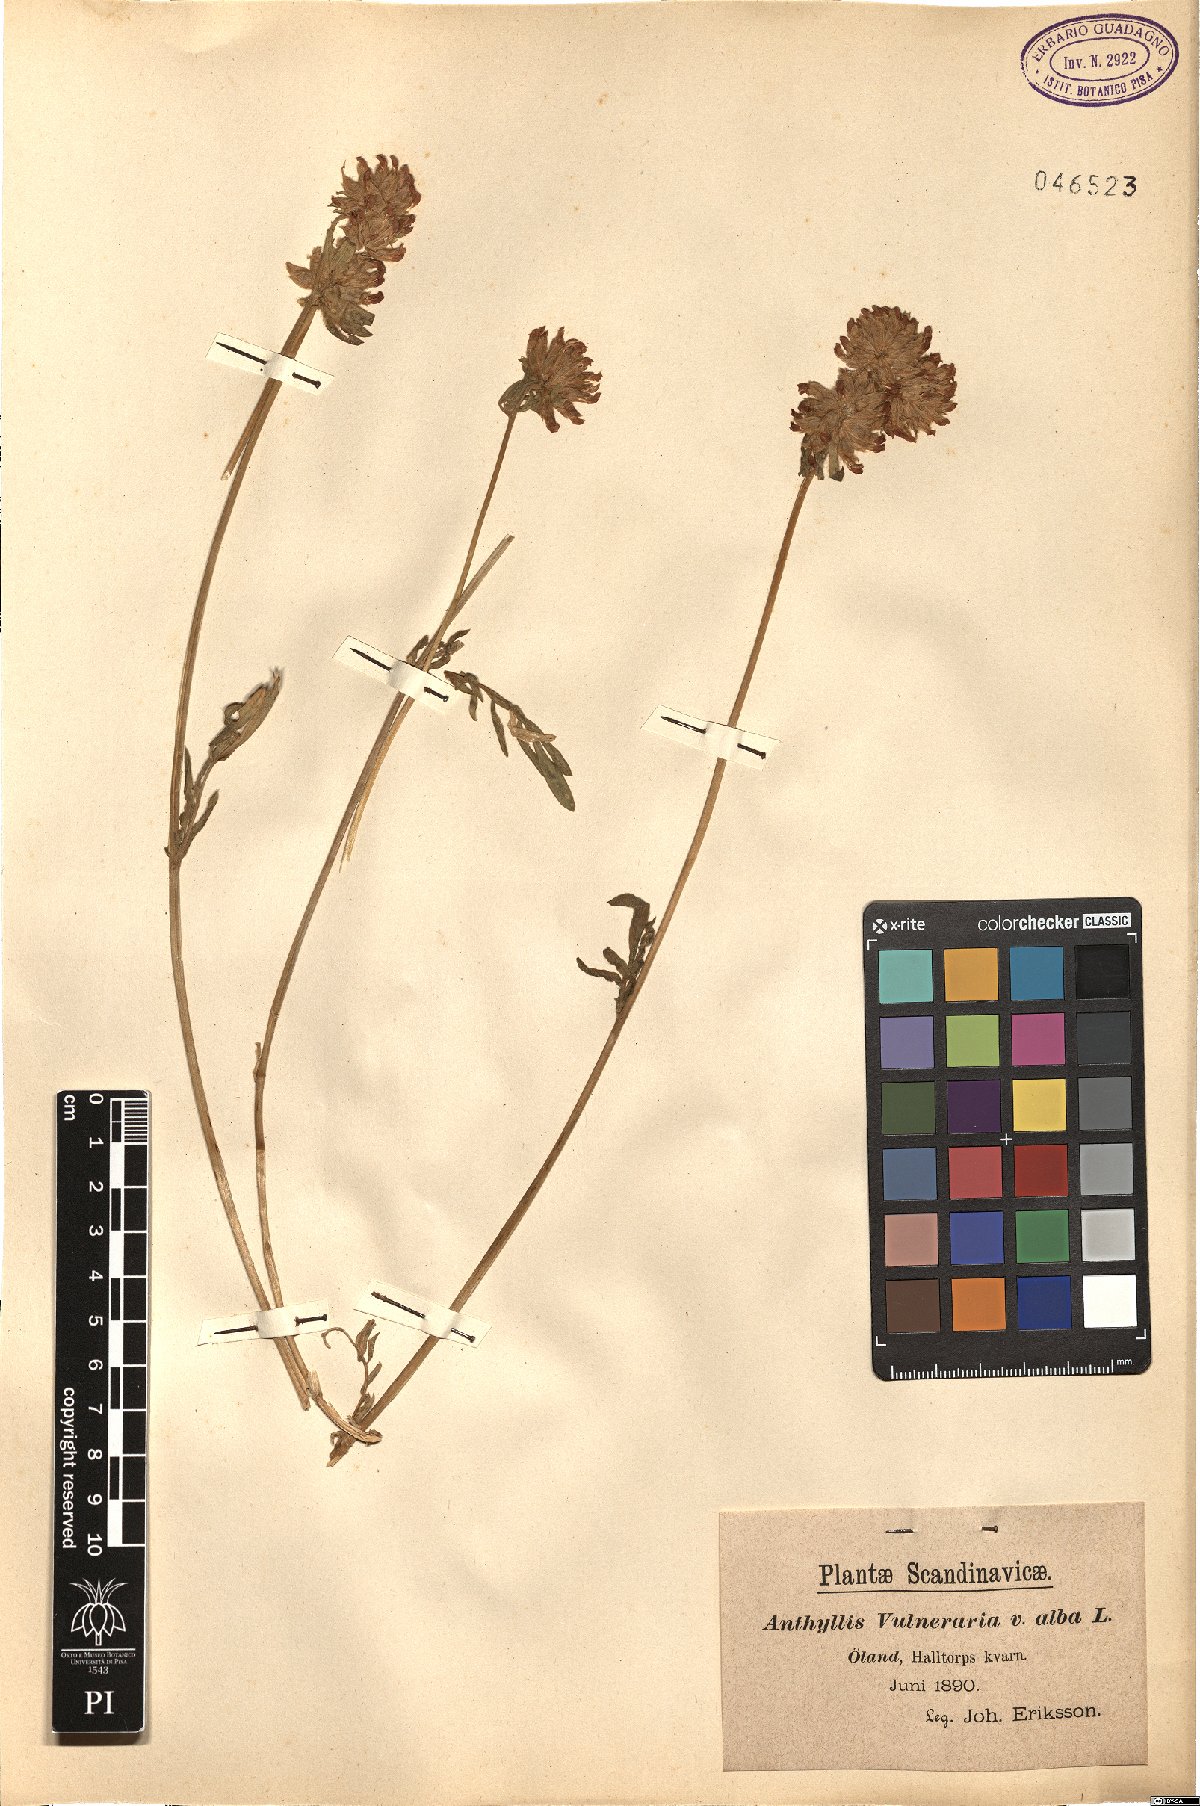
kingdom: Plantae
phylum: Tracheophyta
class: Magnoliopsida
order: Fabales
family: Fabaceae
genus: Anthyllis
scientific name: Anthyllis vulneraria
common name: Kidney vetch
